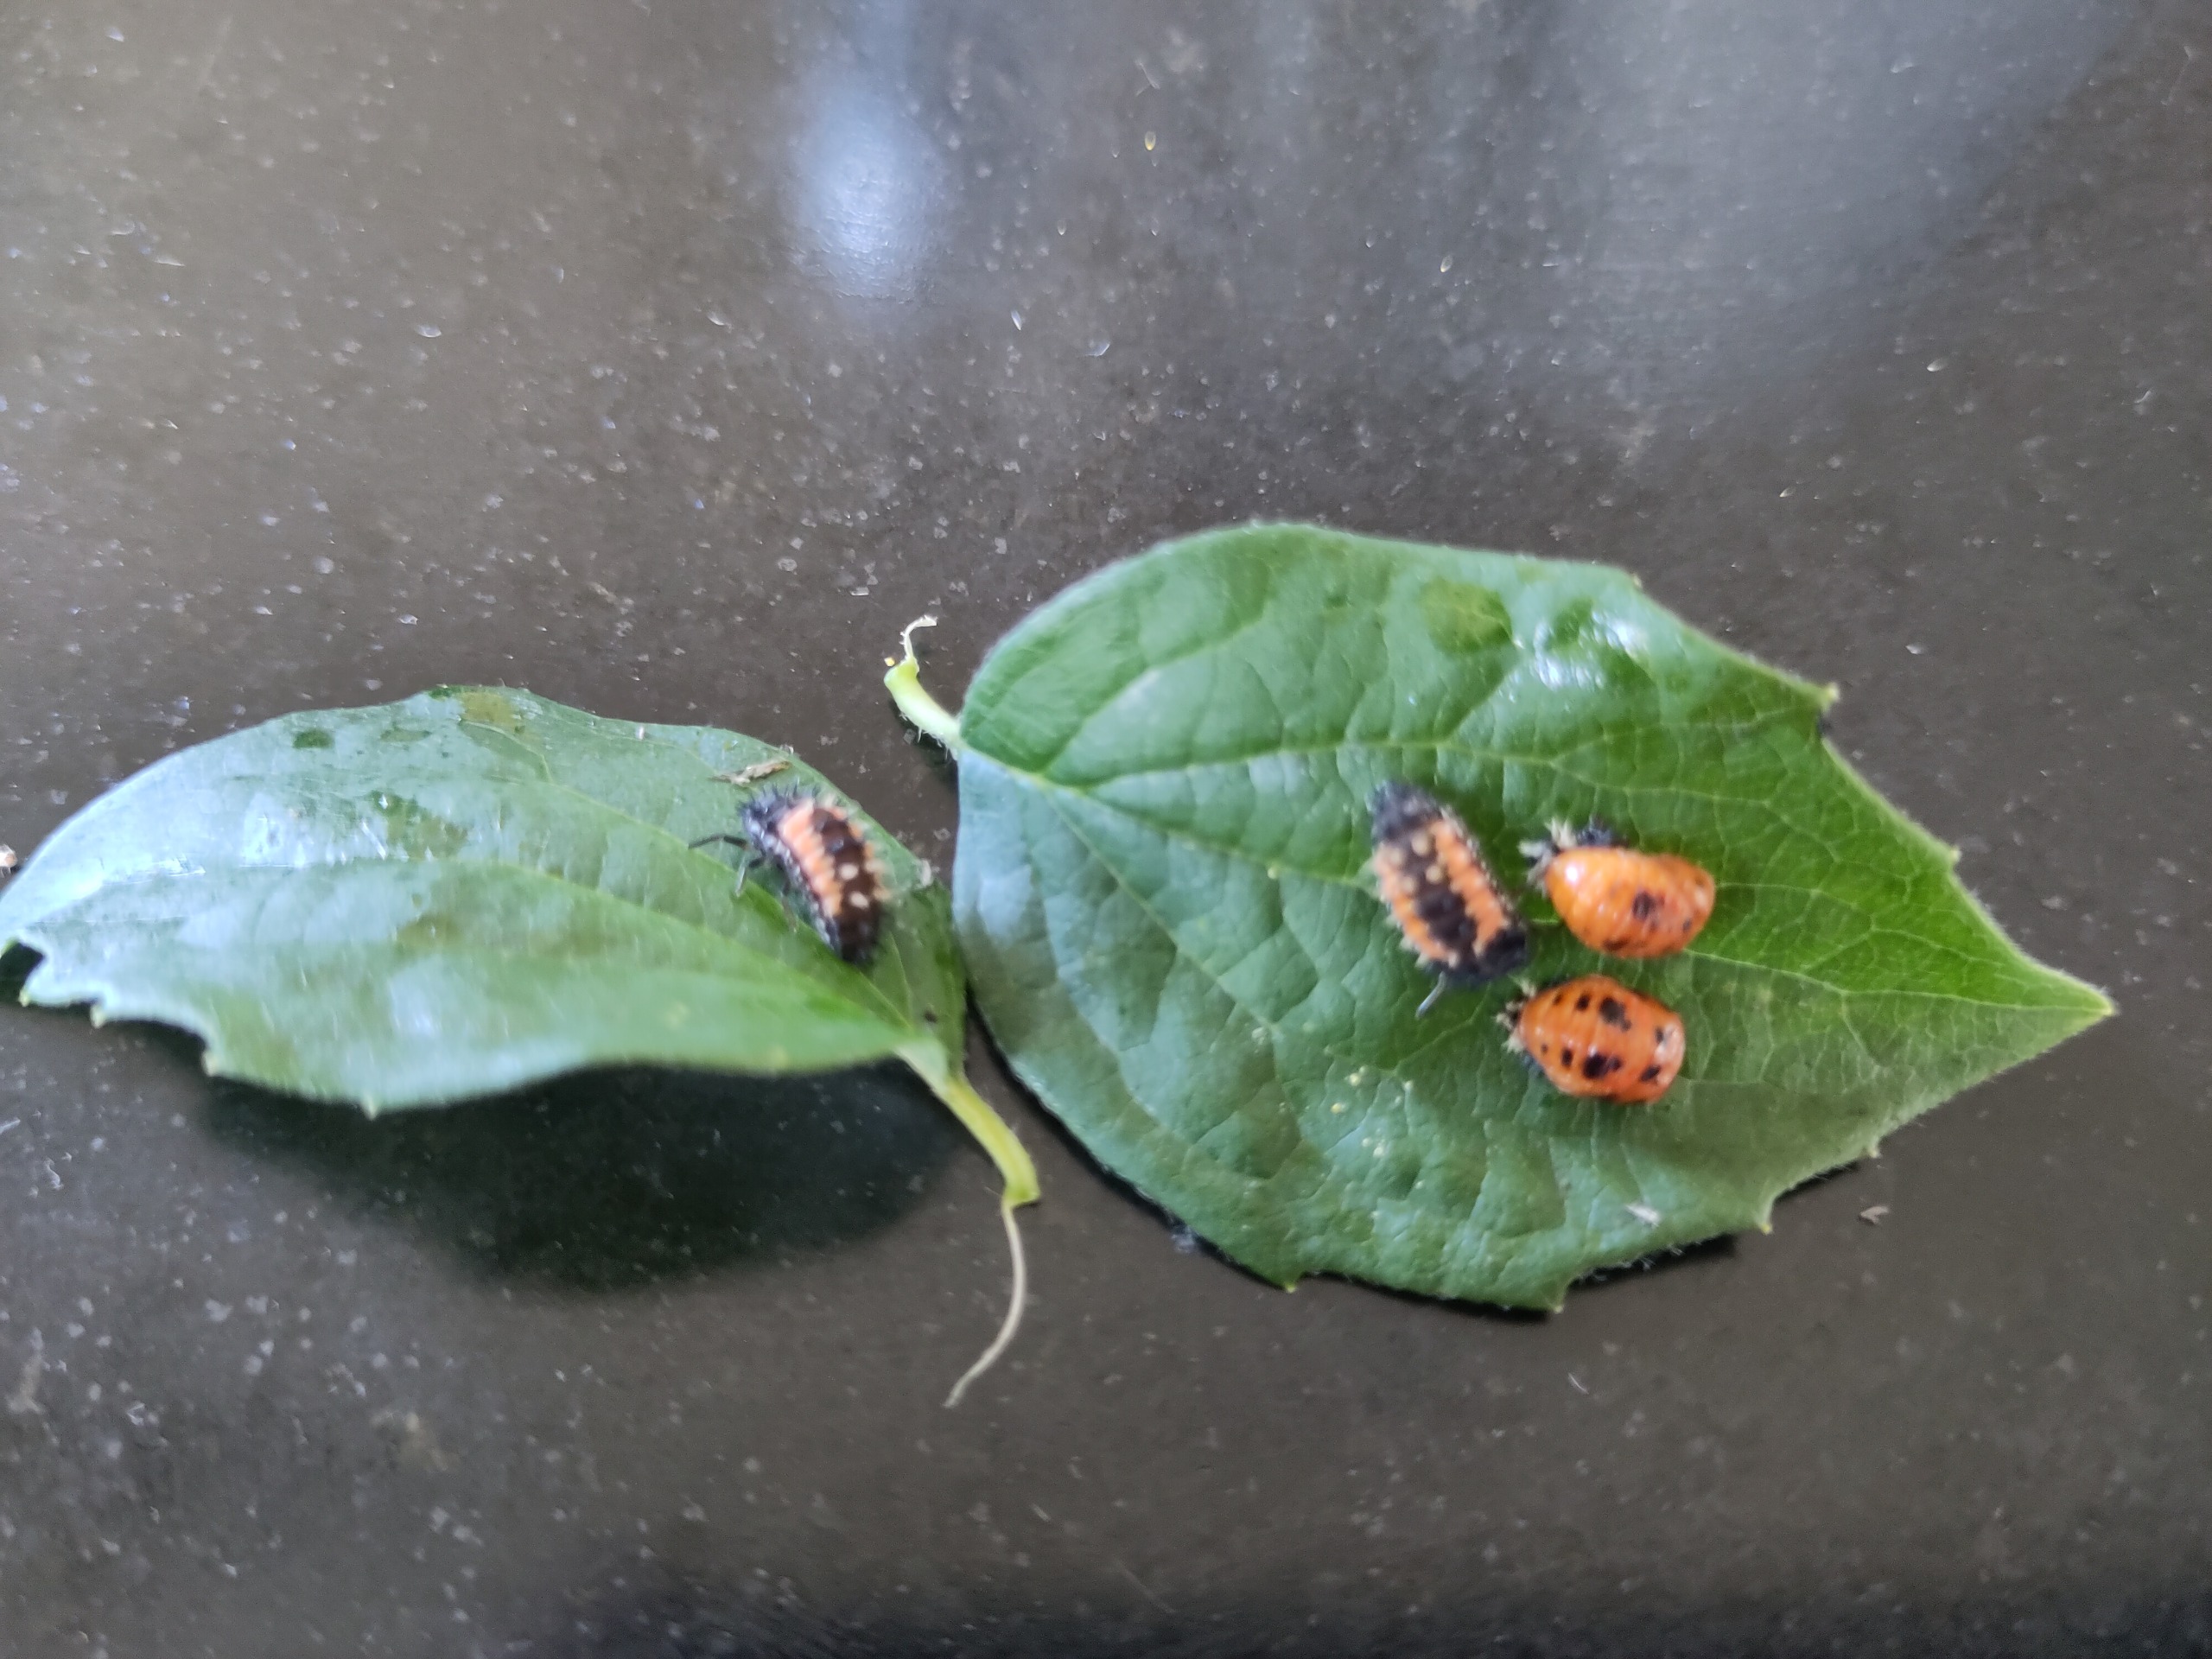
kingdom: Animalia
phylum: Arthropoda
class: Insecta
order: Coleoptera
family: Coccinellidae
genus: Harmonia
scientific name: Harmonia axyridis
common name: Harlekinmariehøne
